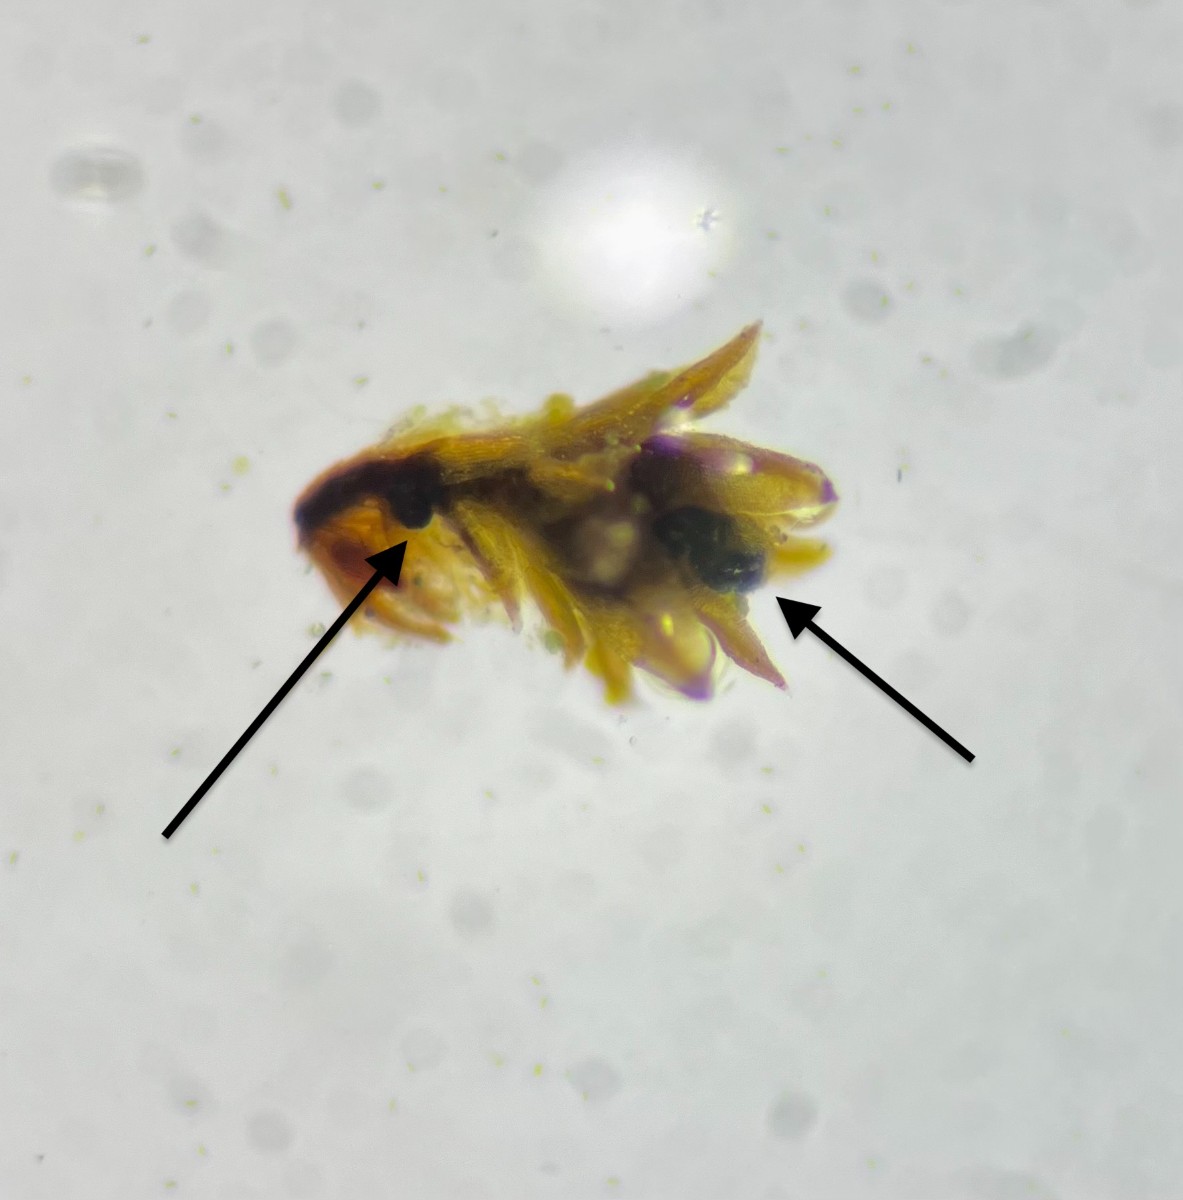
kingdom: Fungi
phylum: Ascomycota
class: Dothideomycetes
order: Dothideales
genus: Bryostroma
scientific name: Bryostroma axillare
